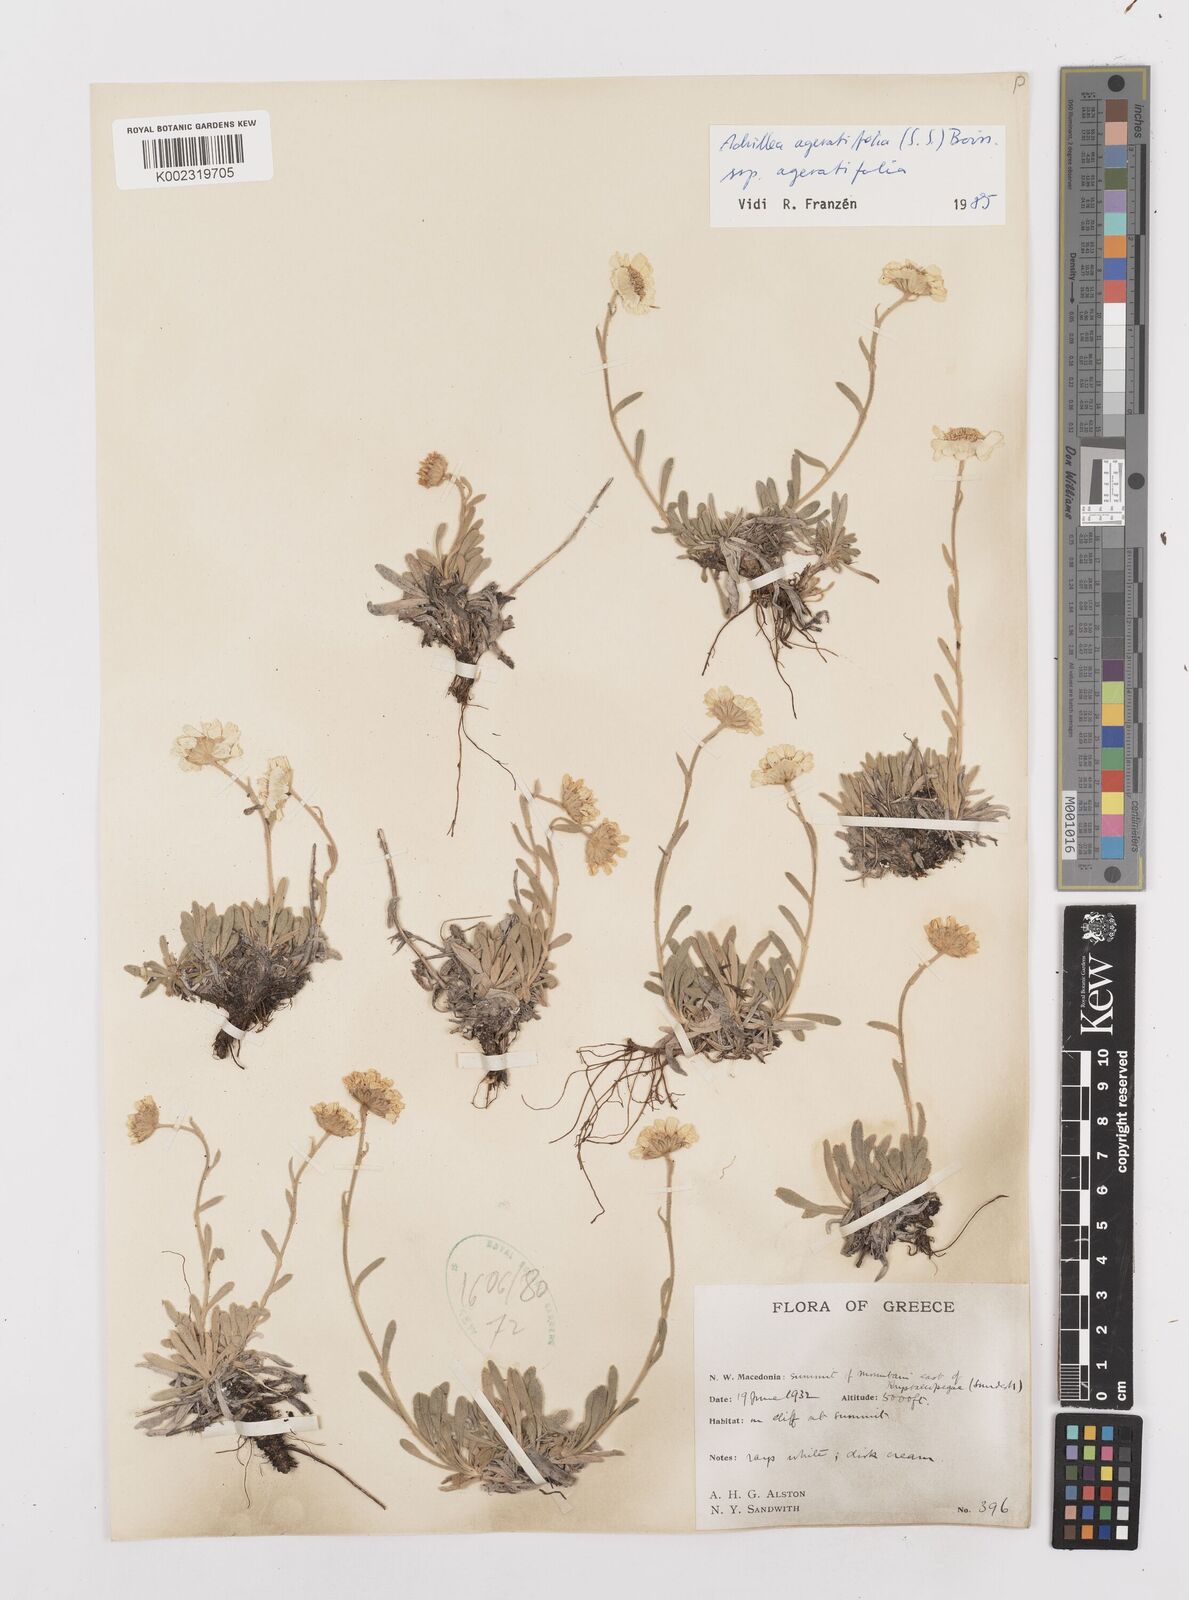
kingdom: Plantae
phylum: Tracheophyta
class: Magnoliopsida
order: Asterales
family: Asteraceae
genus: Achillea
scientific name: Achillea ageratifolia
